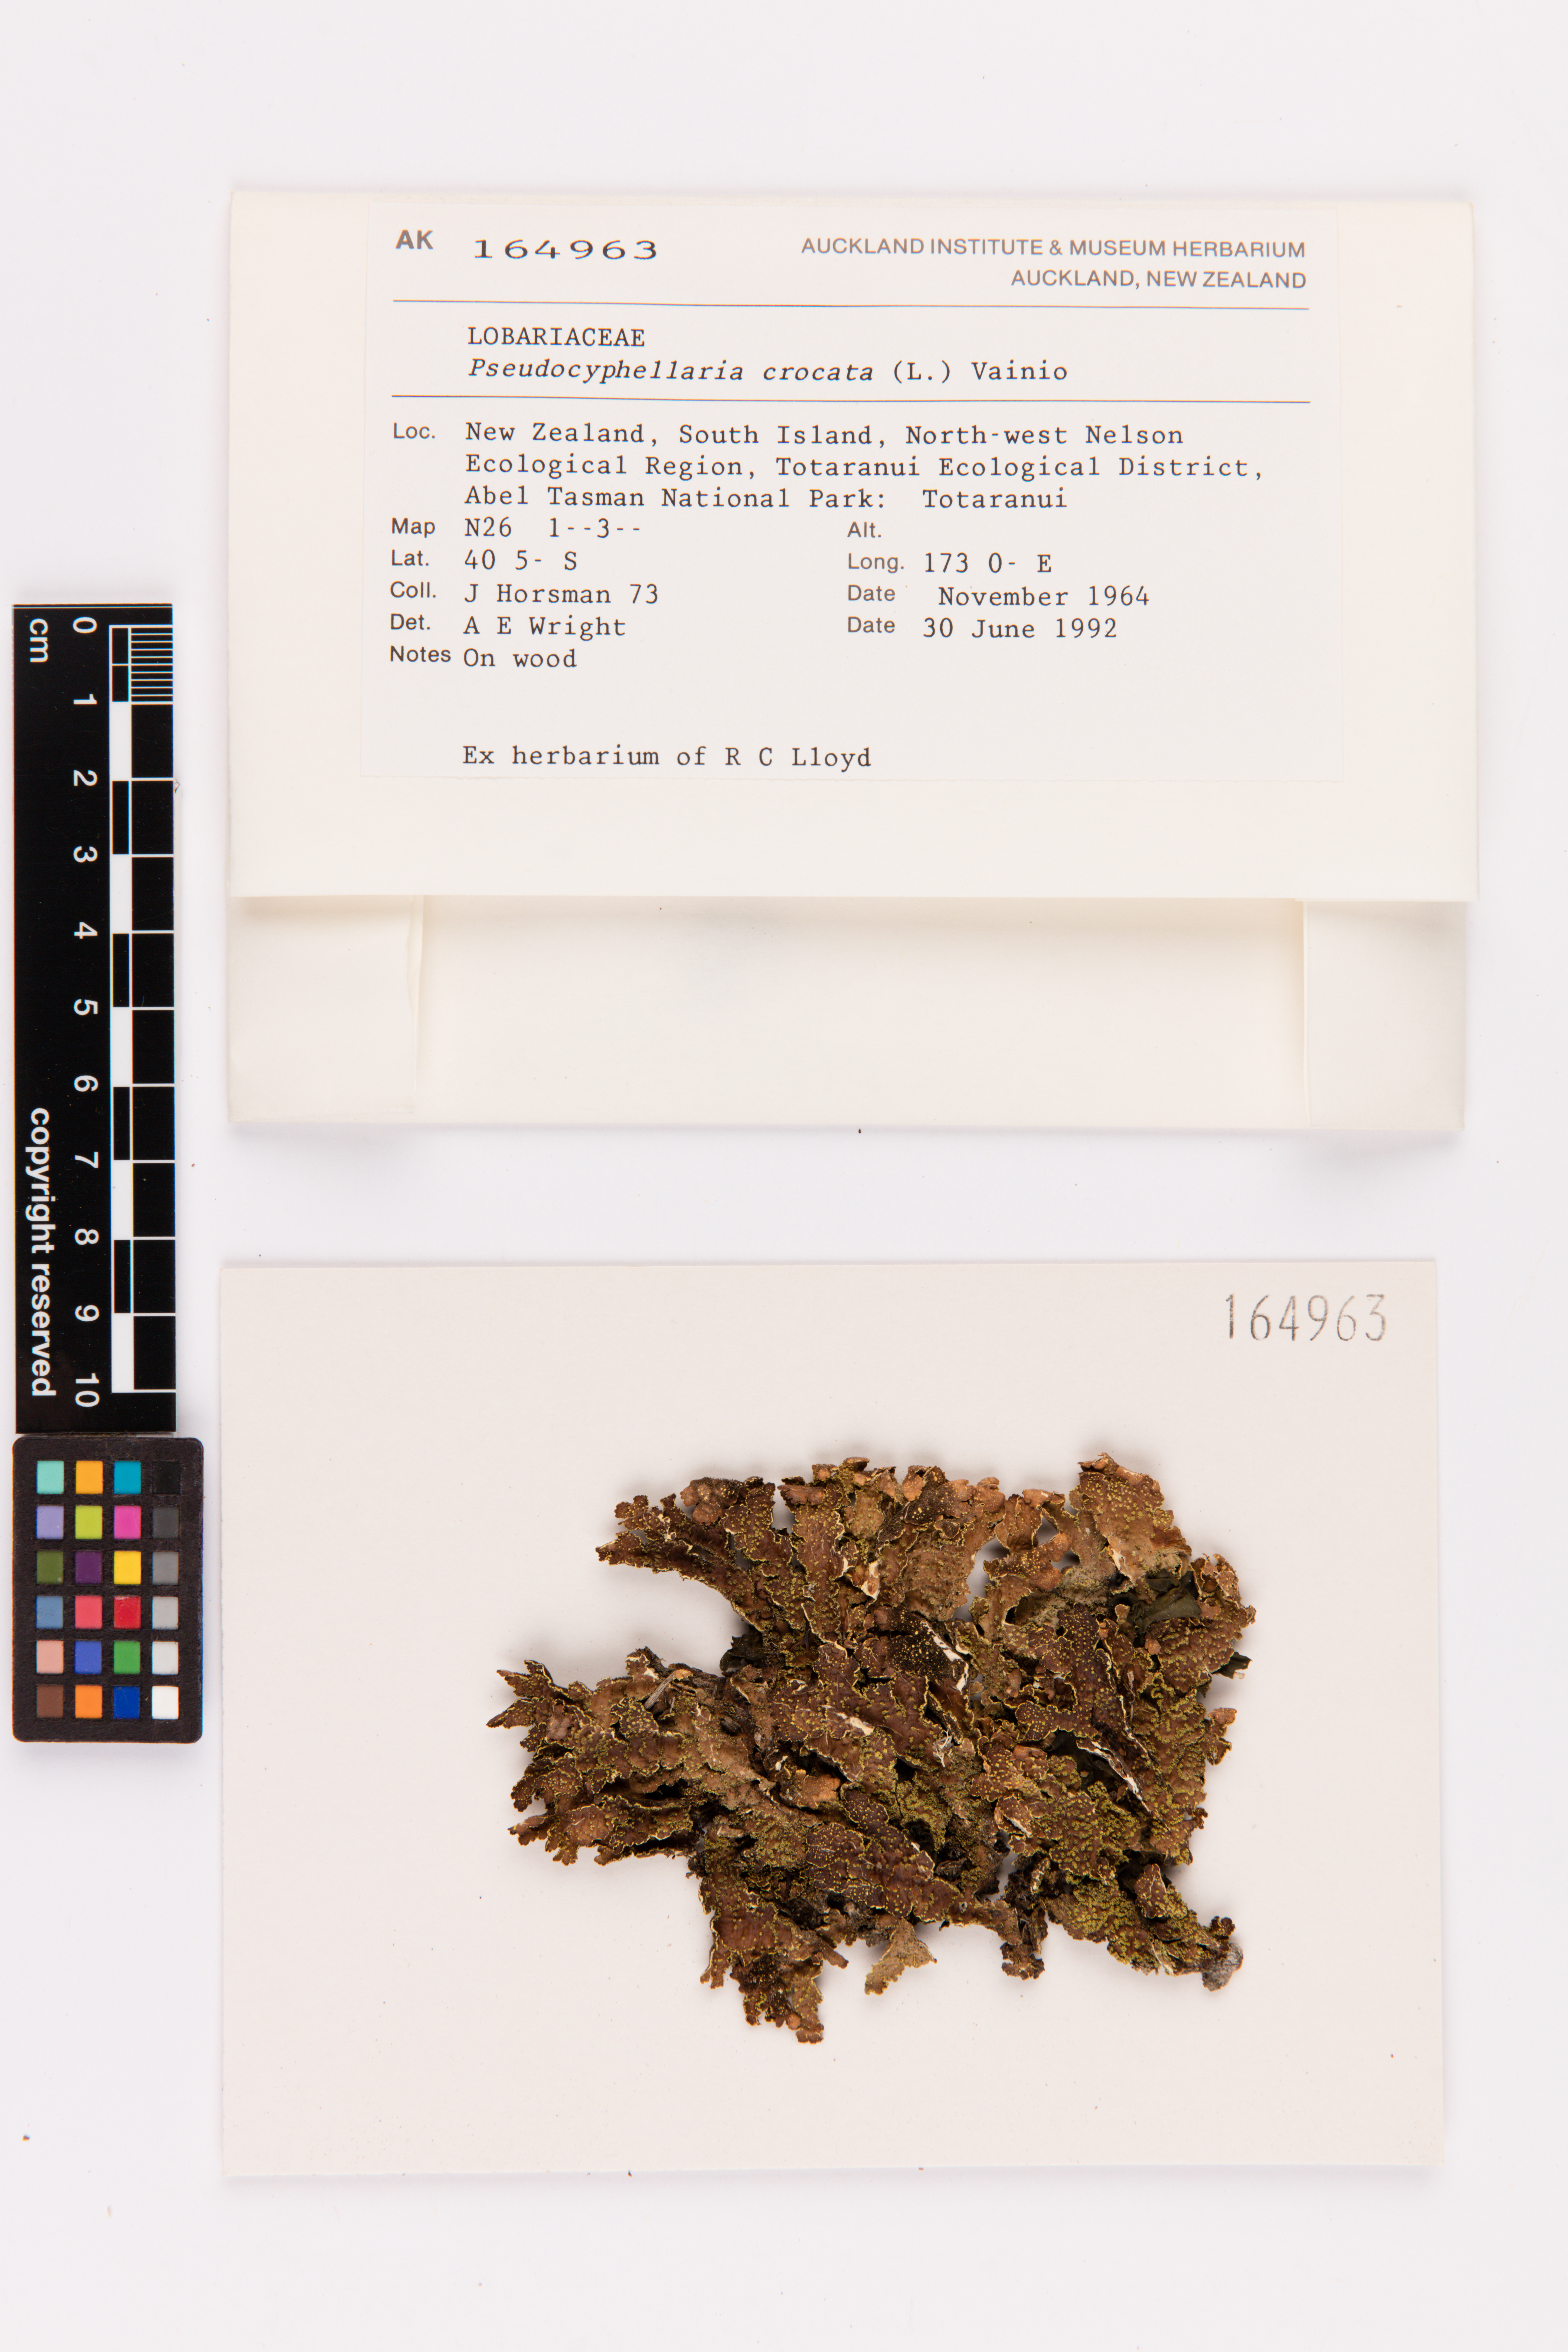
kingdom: Fungi
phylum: Ascomycota
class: Lecanoromycetes
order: Peltigerales
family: Lobariaceae
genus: Pseudocyphellaria
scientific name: Pseudocyphellaria crocata
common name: Golden specklebelly
